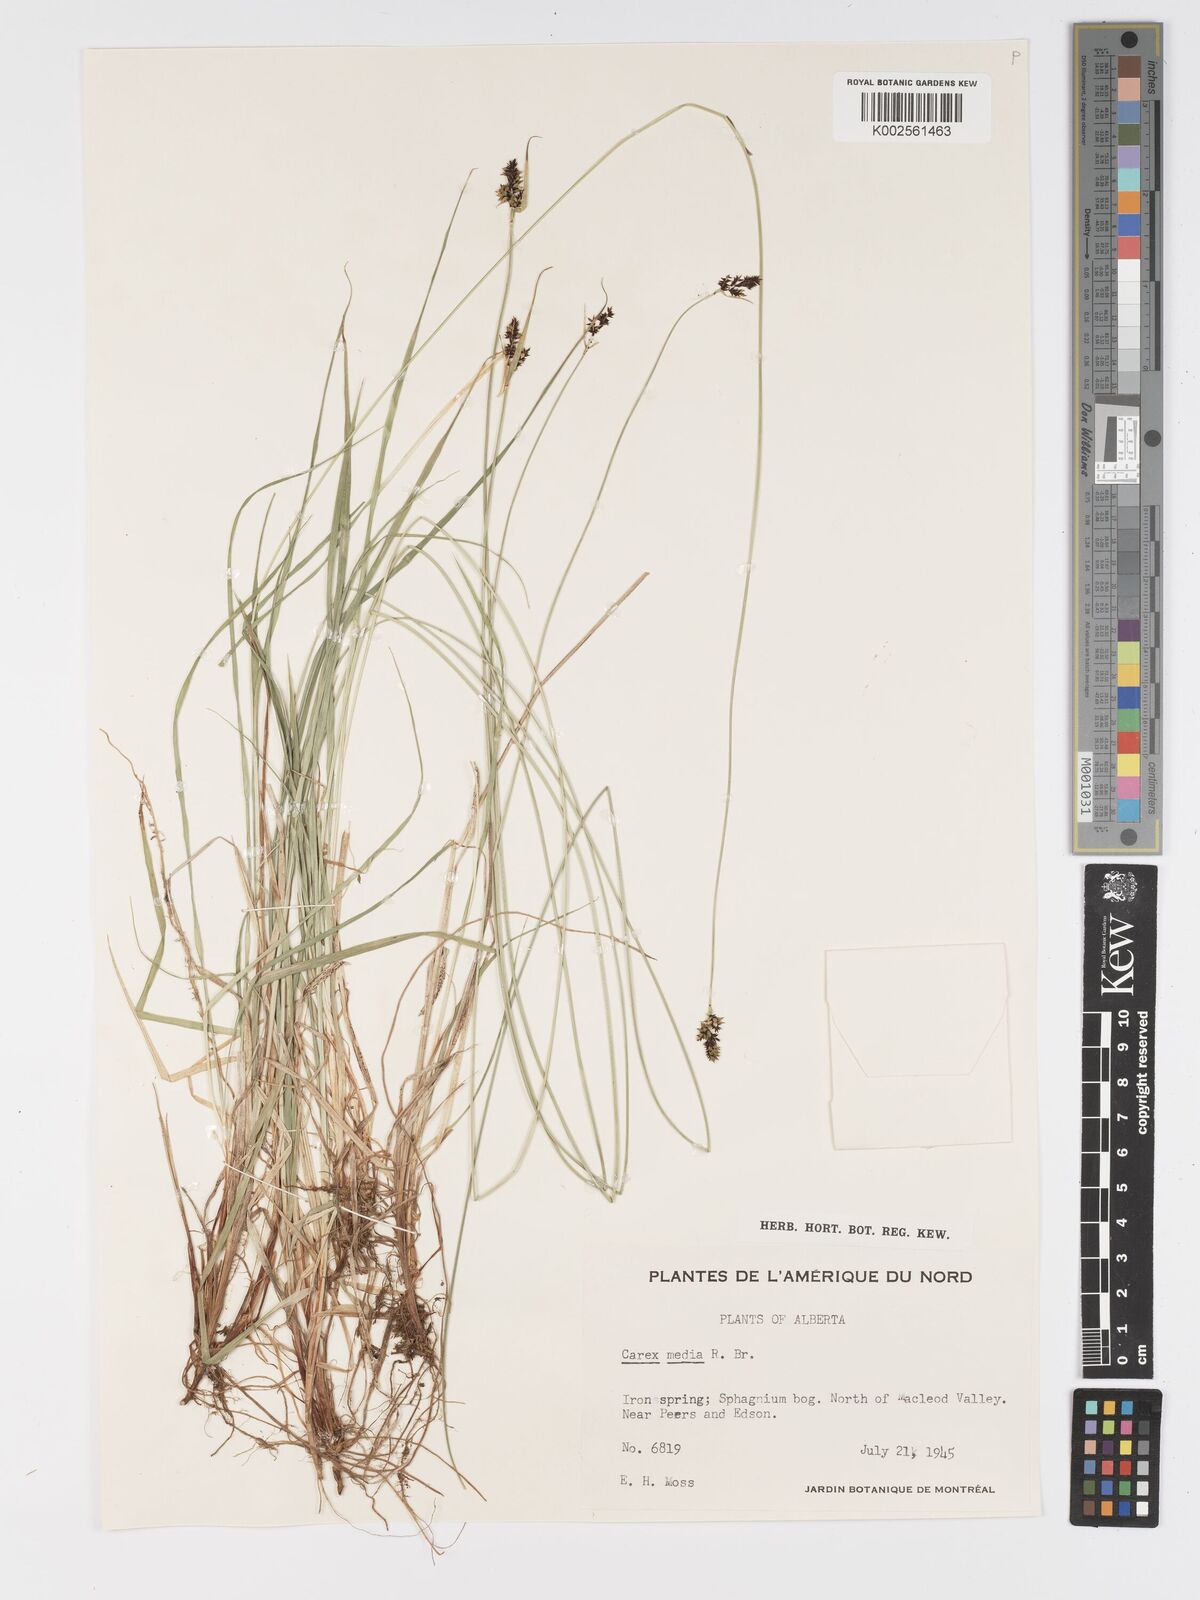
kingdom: Plantae
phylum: Tracheophyta
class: Liliopsida
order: Poales
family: Cyperaceae
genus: Carex
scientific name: Carex media
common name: Alpine sedge
